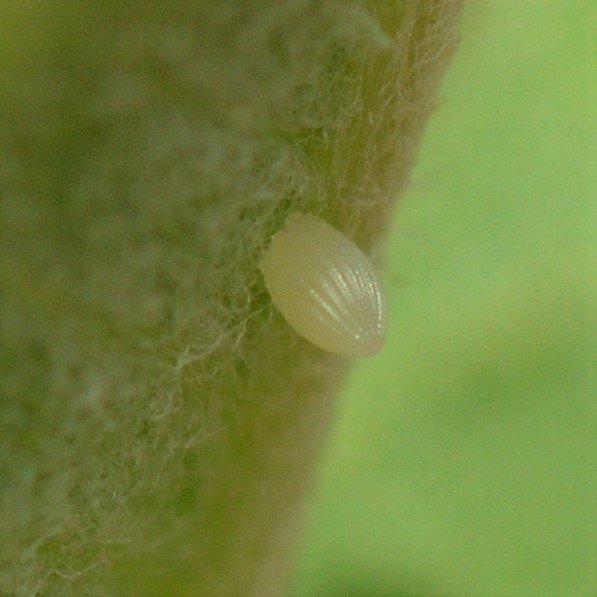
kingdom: Animalia
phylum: Arthropoda
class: Insecta
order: Lepidoptera
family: Nymphalidae
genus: Danaus
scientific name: Danaus plexippus
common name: Monarch
